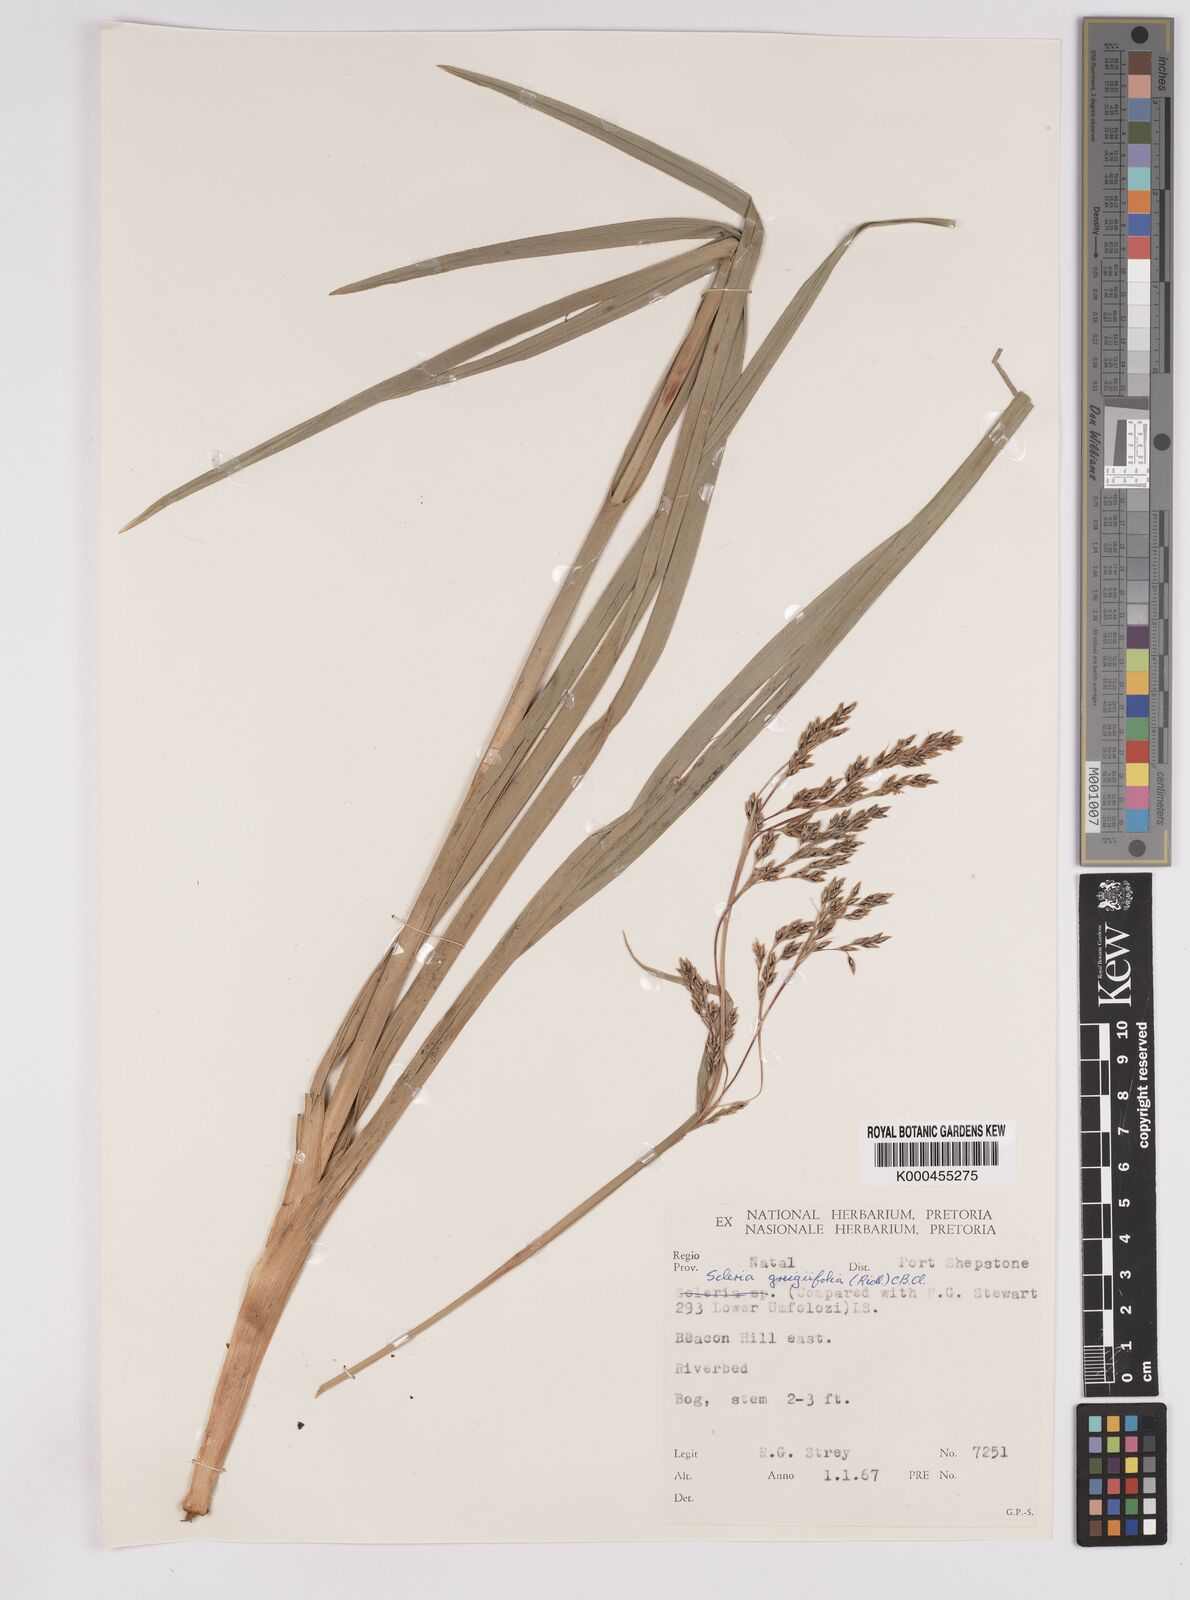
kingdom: Plantae
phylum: Tracheophyta
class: Liliopsida
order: Poales
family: Cyperaceae
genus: Scleria
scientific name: Scleria greigiifolia
